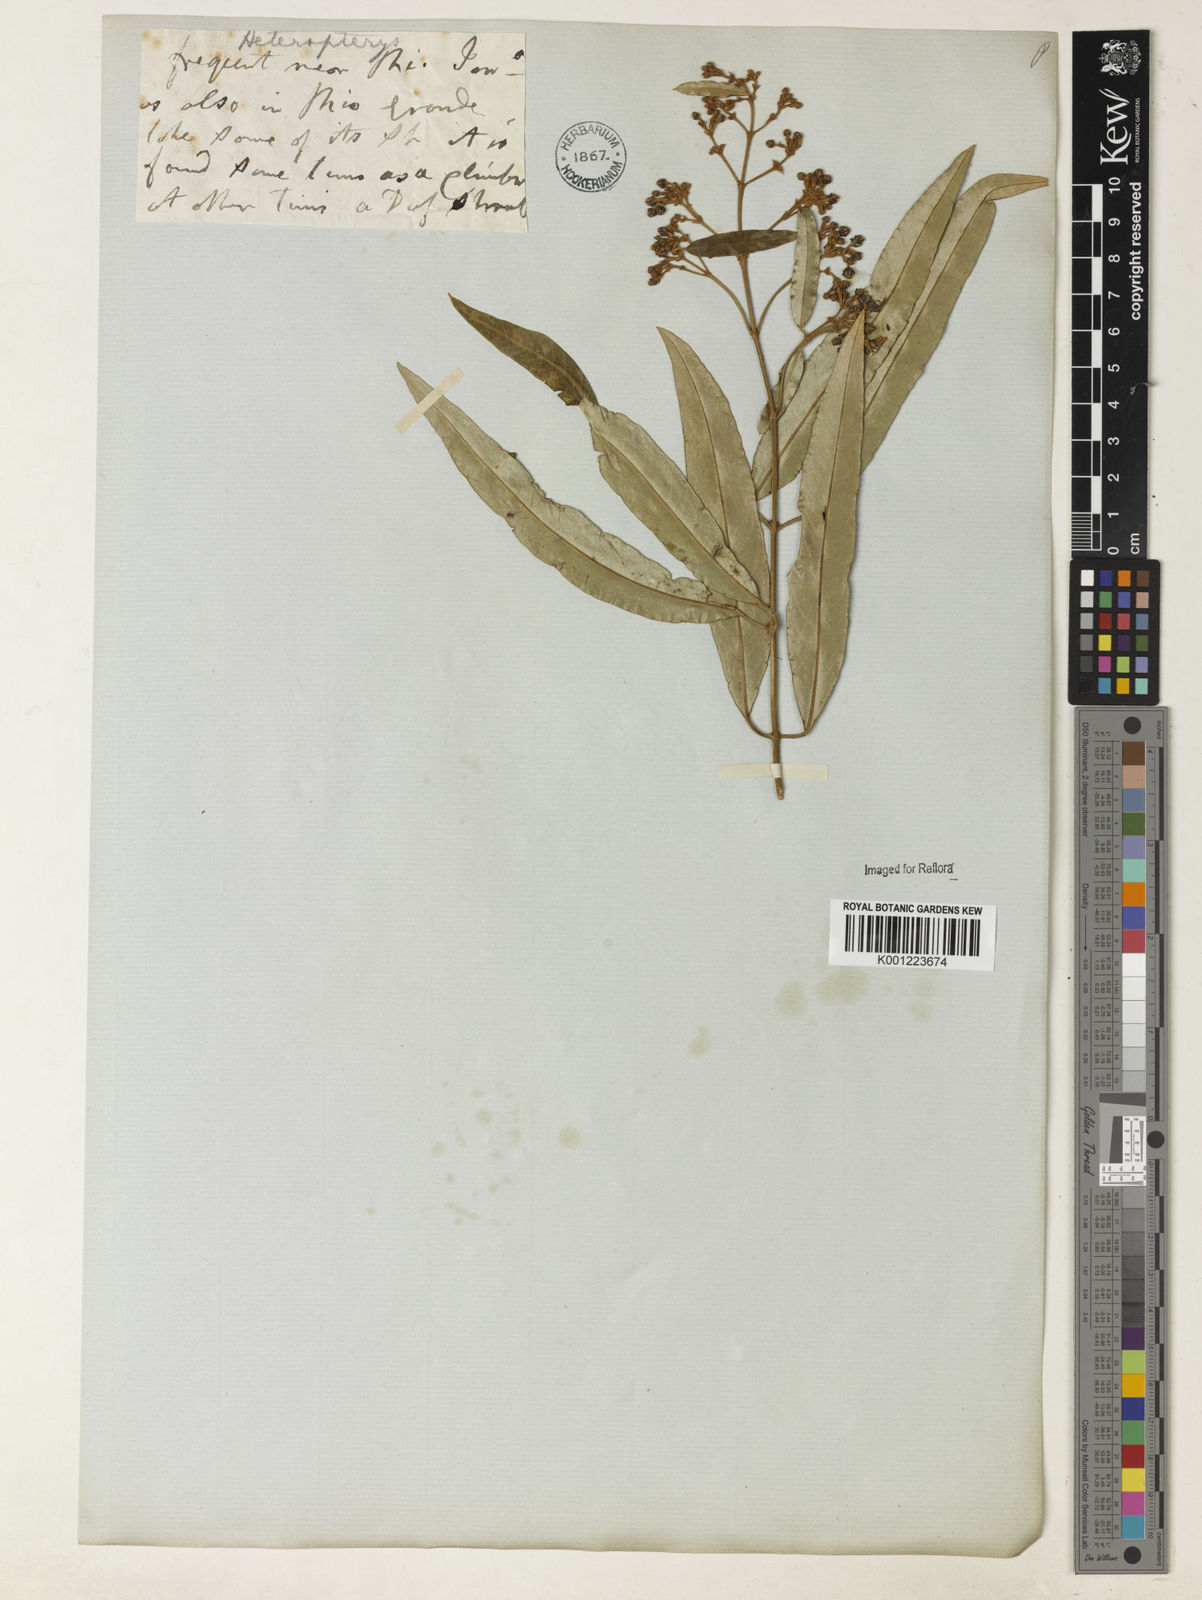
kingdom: Plantae
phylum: Tracheophyta
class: Magnoliopsida
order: Malpighiales
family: Malpighiaceae
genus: Heteropterys
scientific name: Heteropterys banksiifolia
